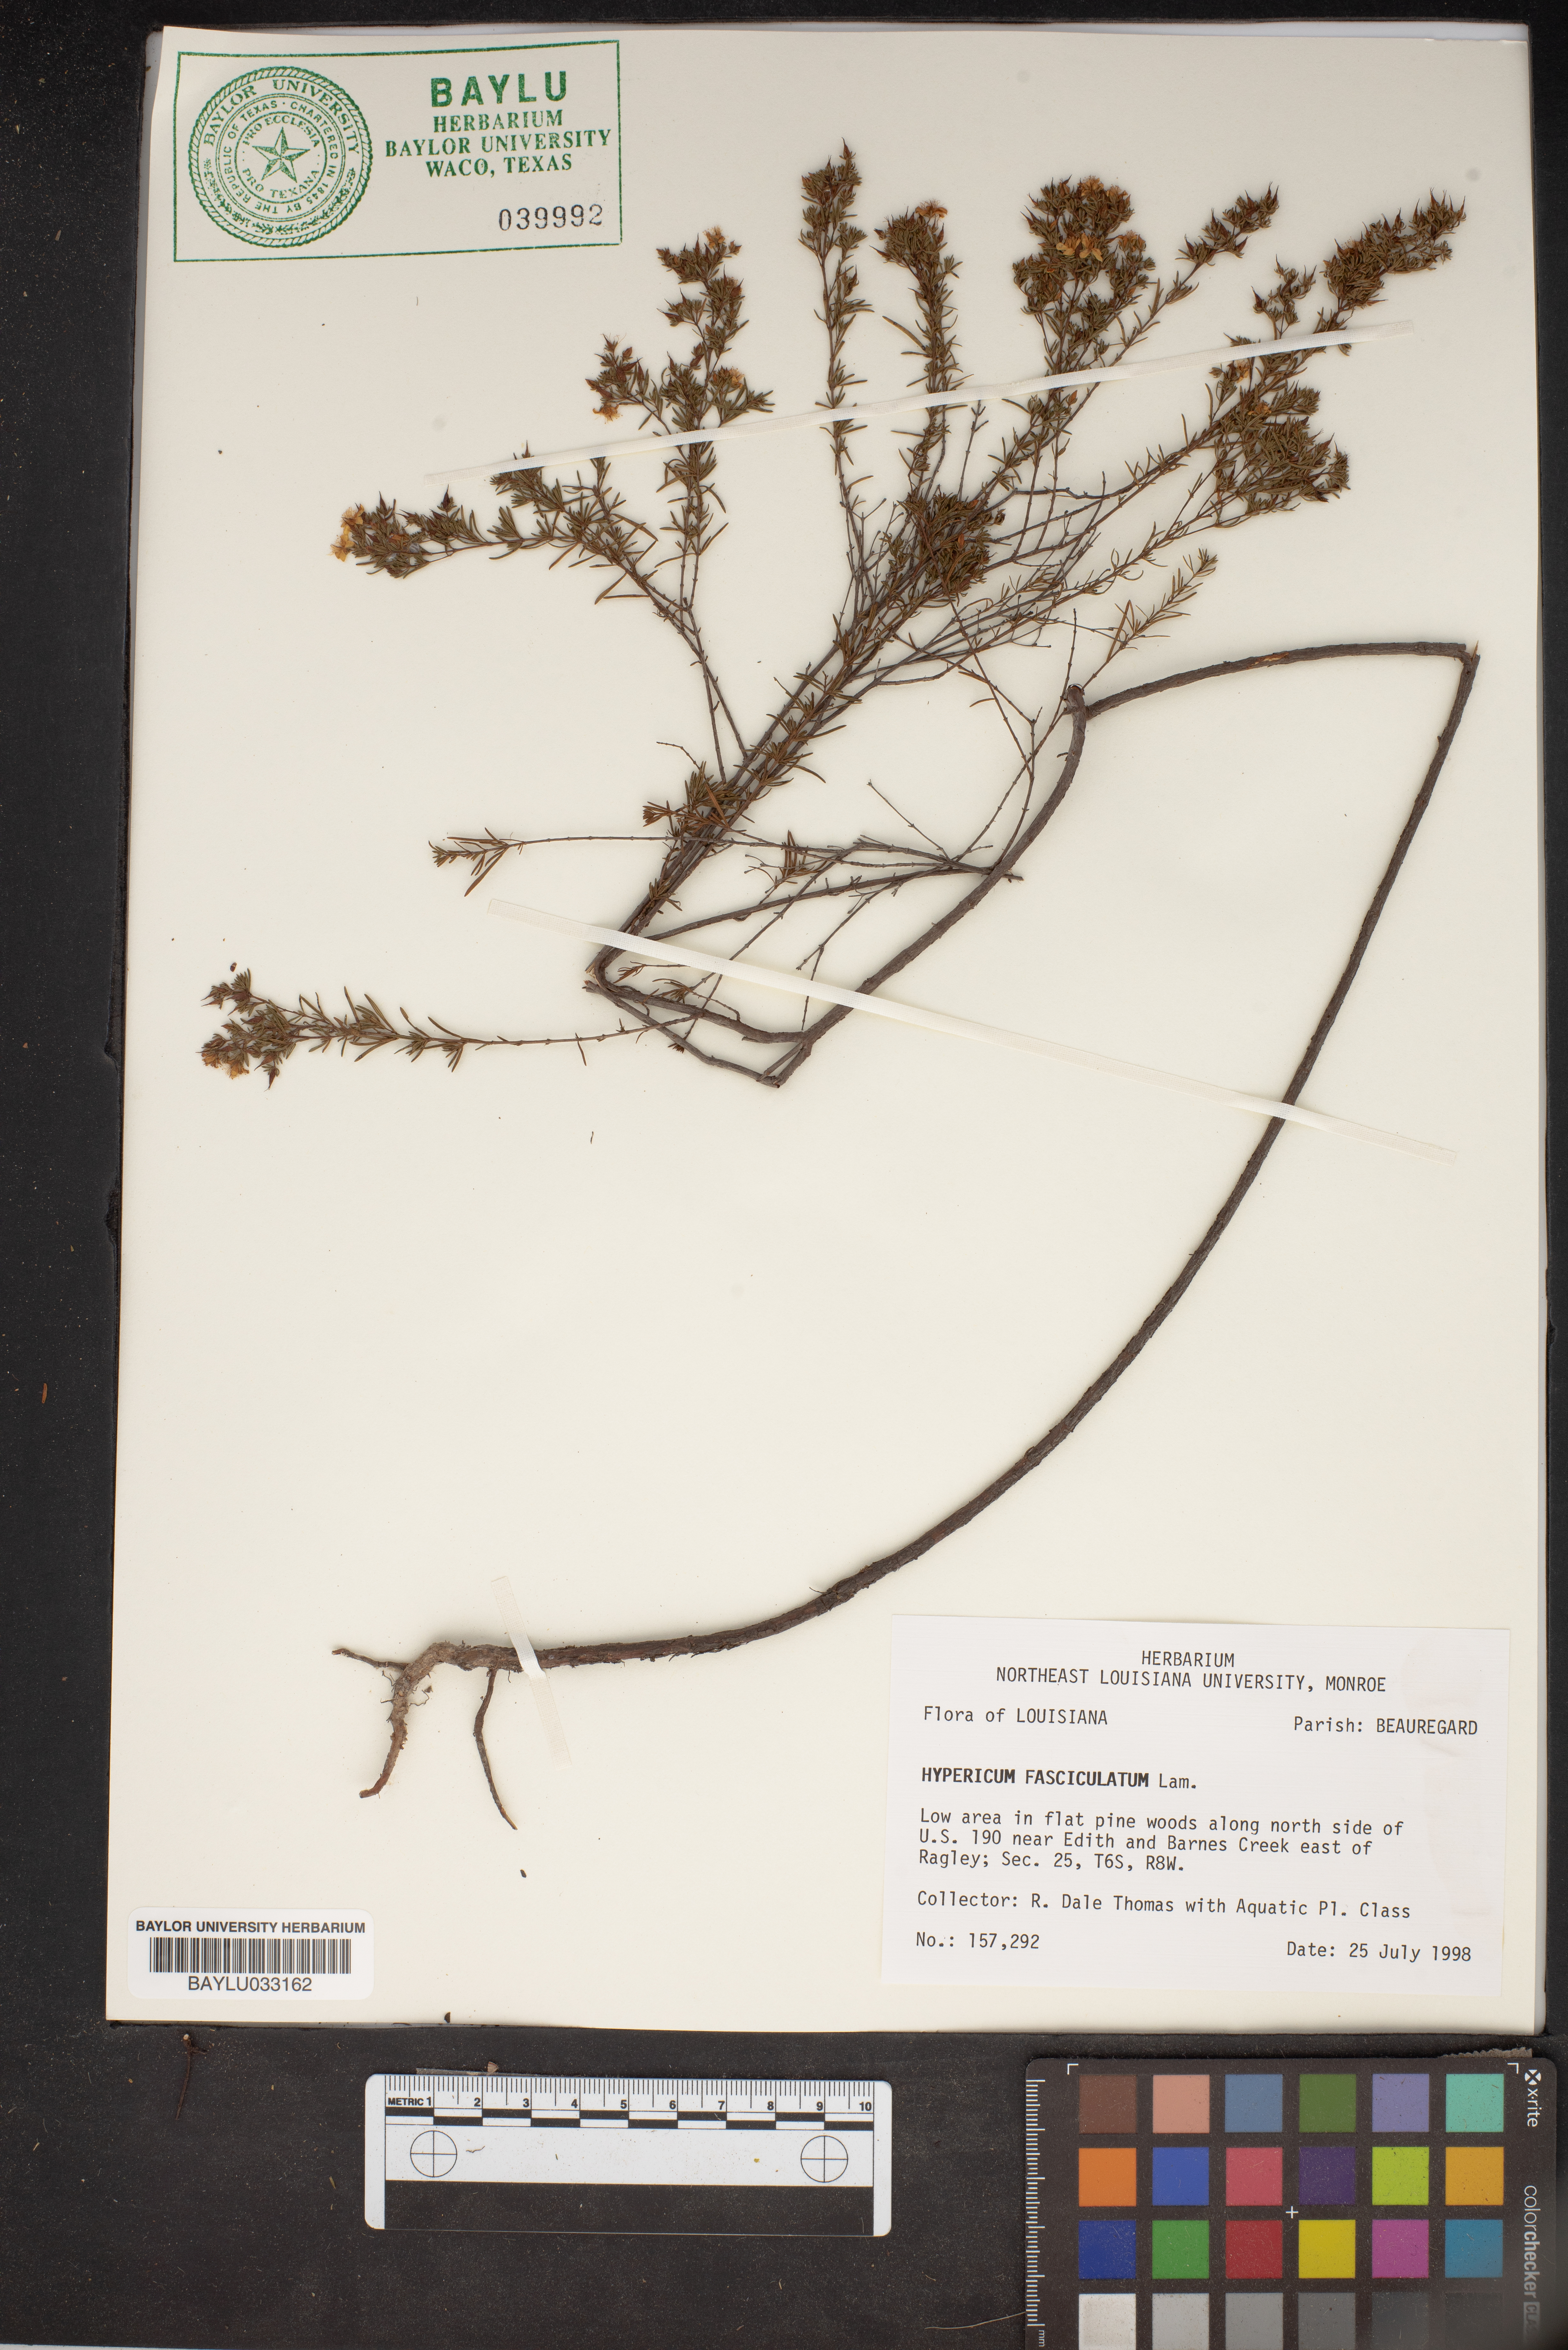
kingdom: Plantae
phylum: Tracheophyta
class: Magnoliopsida
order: Malpighiales
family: Hypericaceae
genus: Hypericum
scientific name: Hypericum fasciculatum
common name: Peelbark st. john's wort
